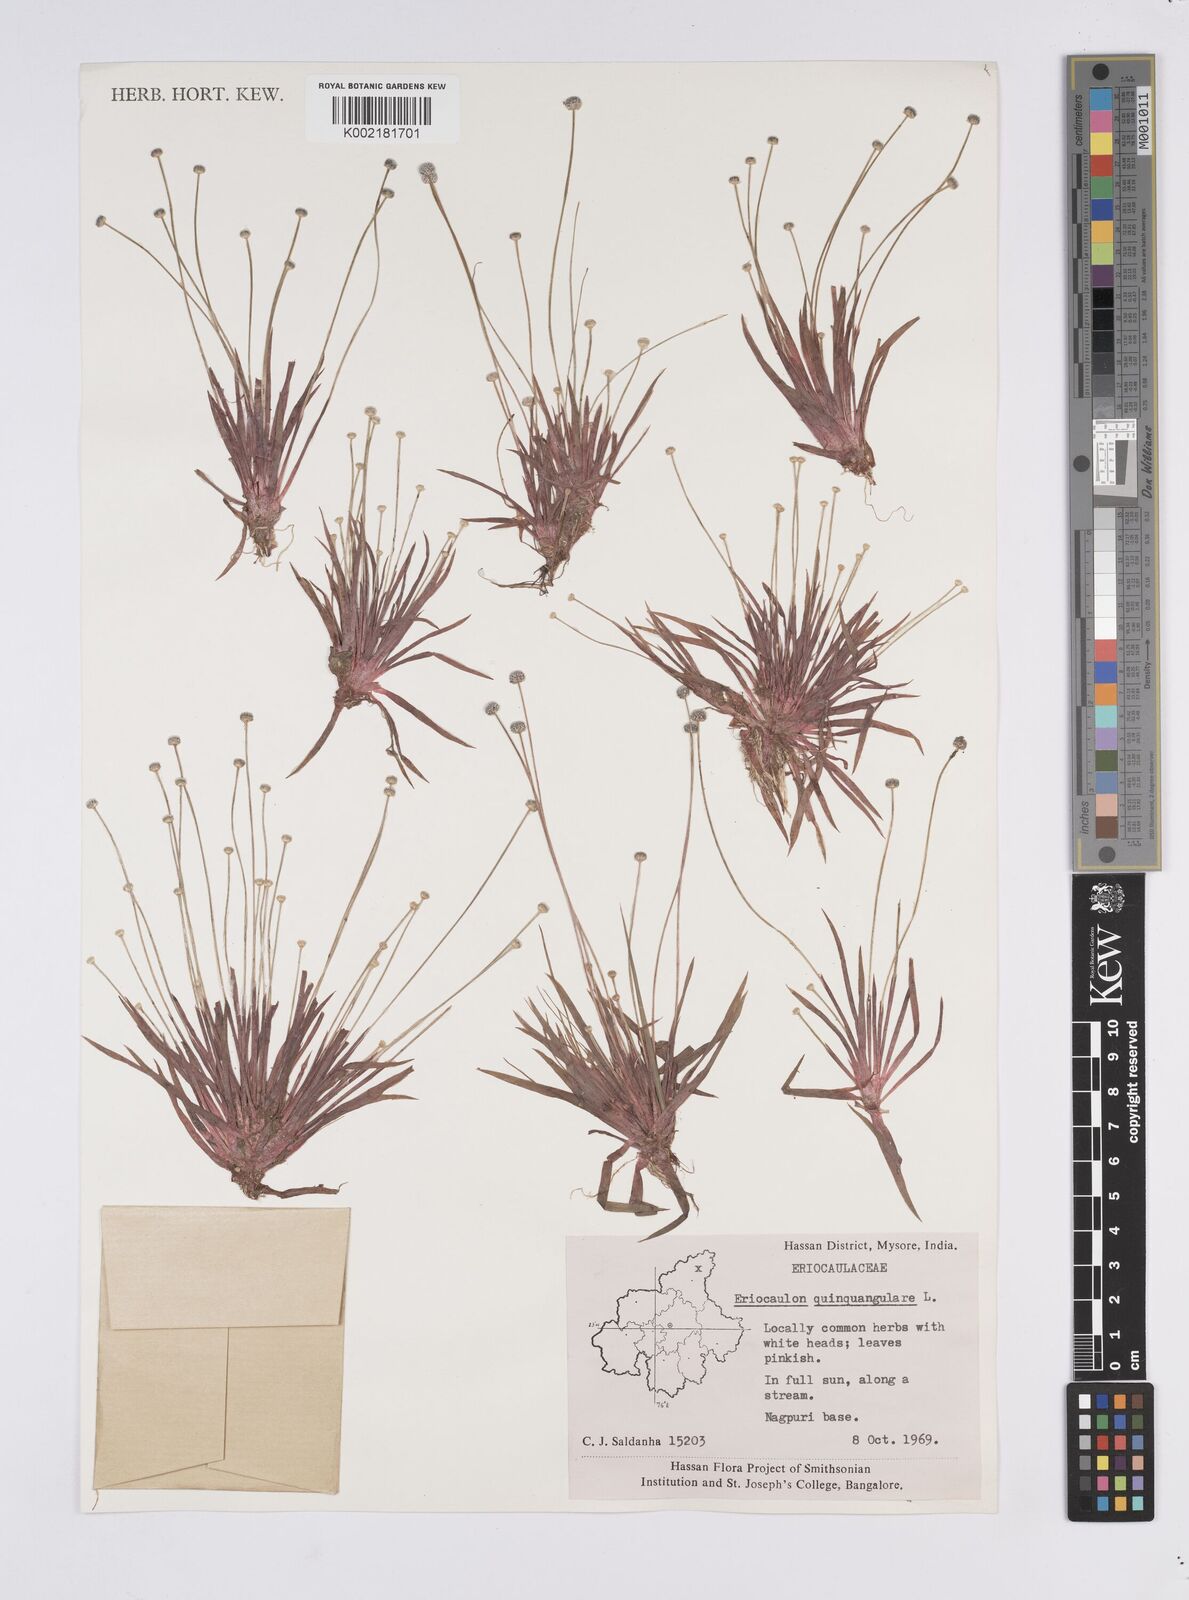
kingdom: Plantae
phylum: Tracheophyta
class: Liliopsida
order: Poales
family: Eriocaulaceae
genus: Eriocaulon
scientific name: Eriocaulon quinquangulare
